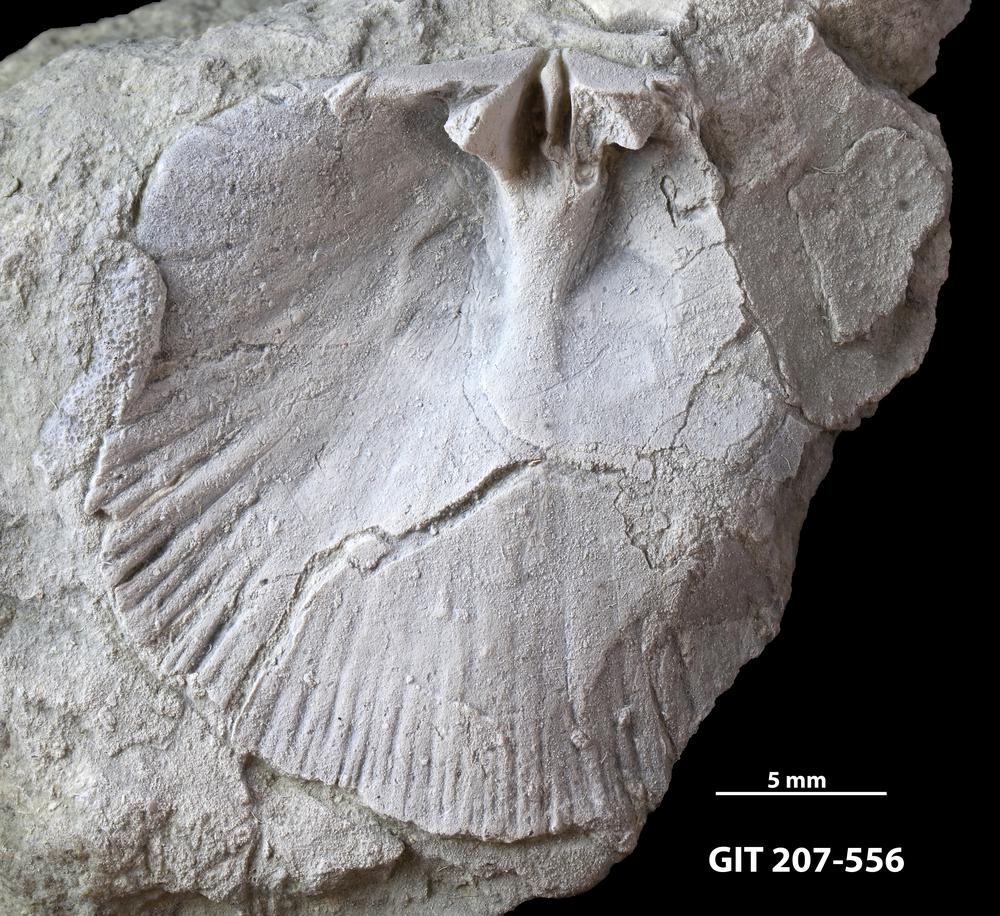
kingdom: Animalia
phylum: Brachiopoda
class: Rhynchonellata
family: Harknessellidae
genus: Horderleyella
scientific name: Horderleyella Dalmanella kegelensis
